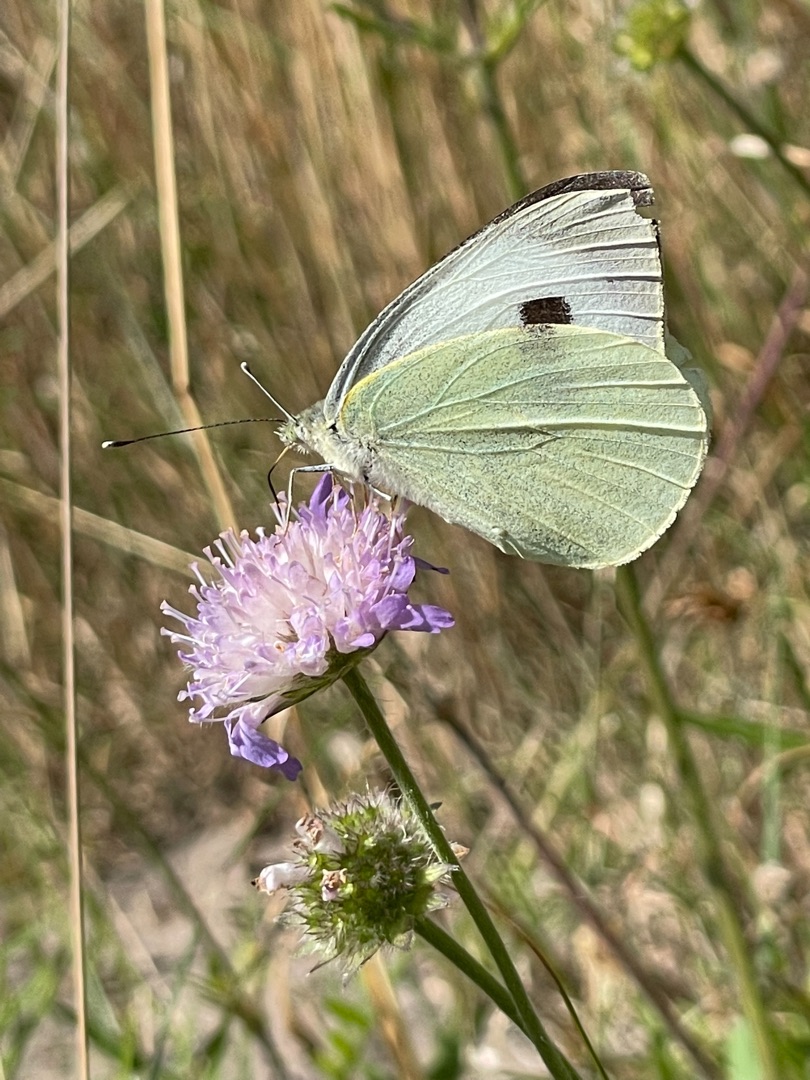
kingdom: Animalia
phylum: Arthropoda
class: Insecta
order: Lepidoptera
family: Pieridae
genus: Pieris
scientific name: Pieris brassicae
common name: Stor kålsommerfugl
